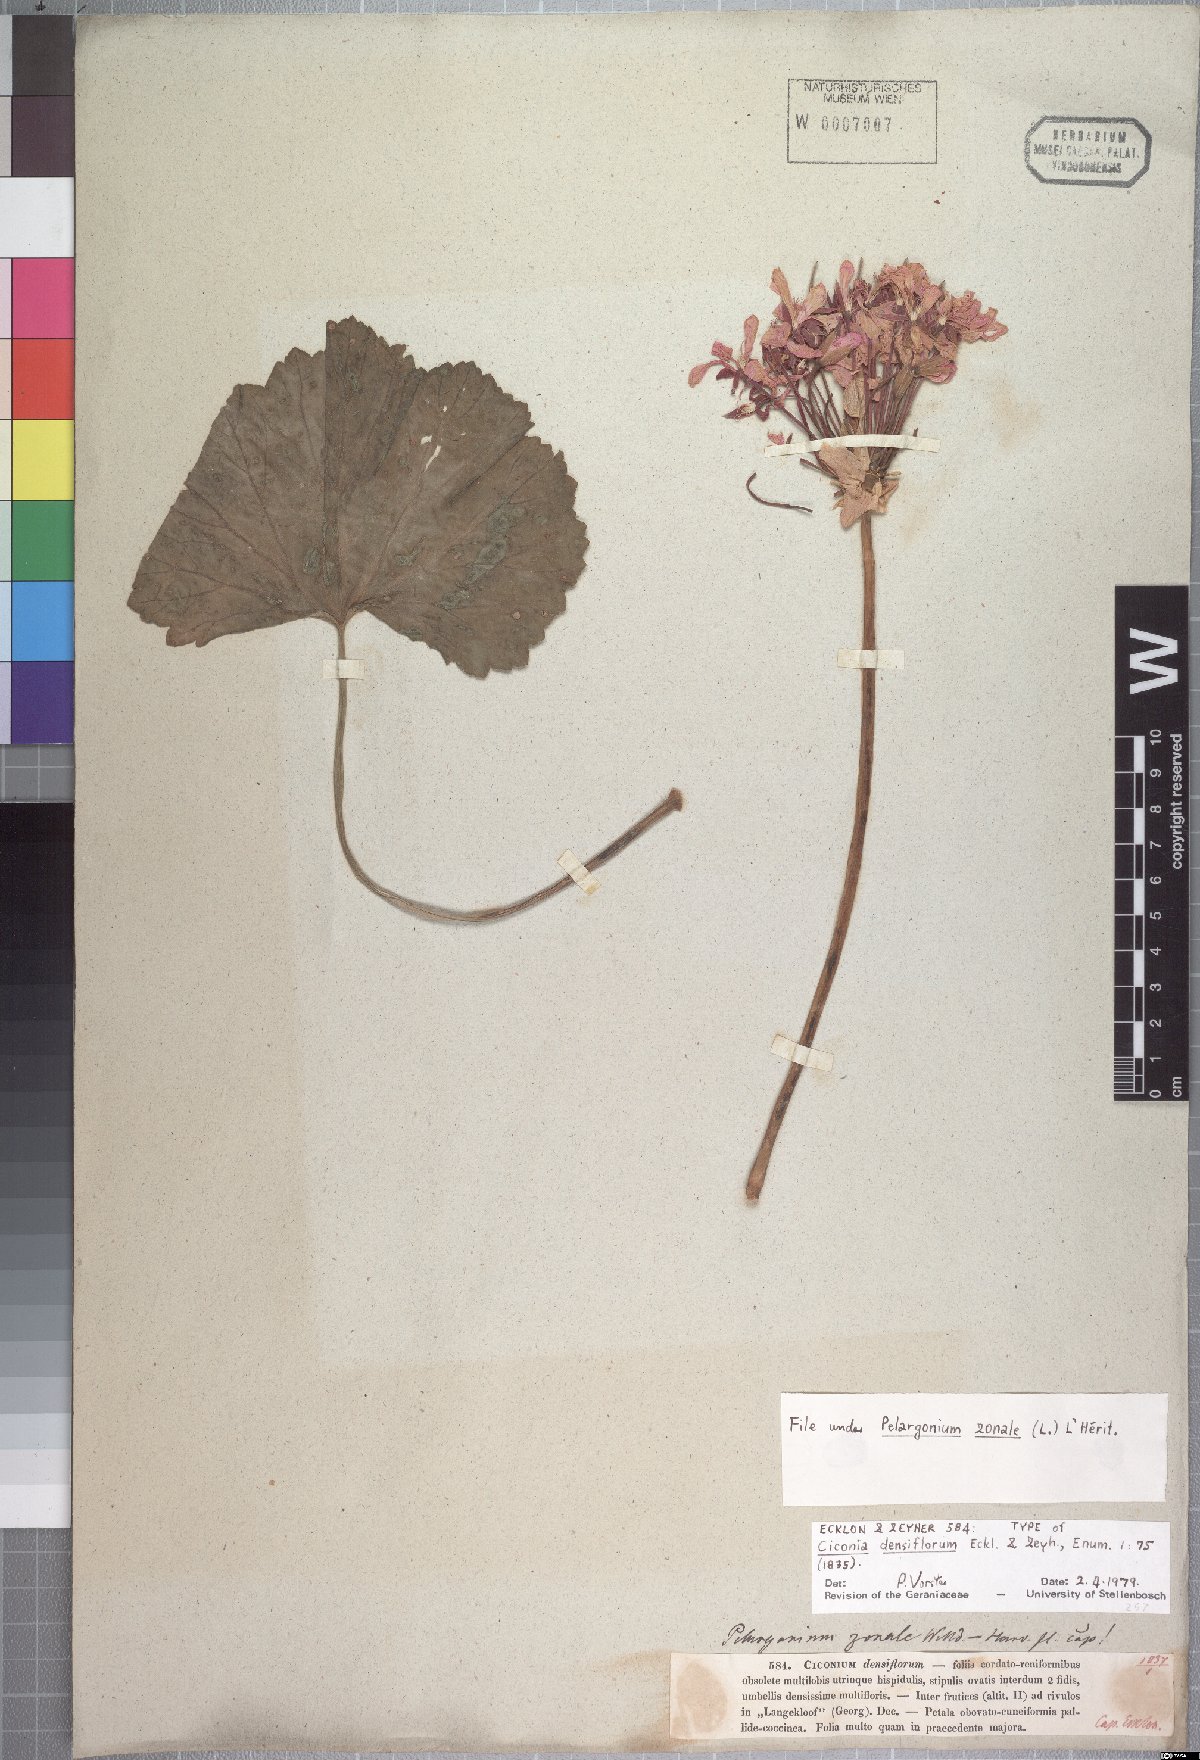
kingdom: Plantae
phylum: Tracheophyta
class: Magnoliopsida
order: Geraniales
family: Geraniaceae
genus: Pelargonium
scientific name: Pelargonium zonale
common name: Horseshoe geranium
